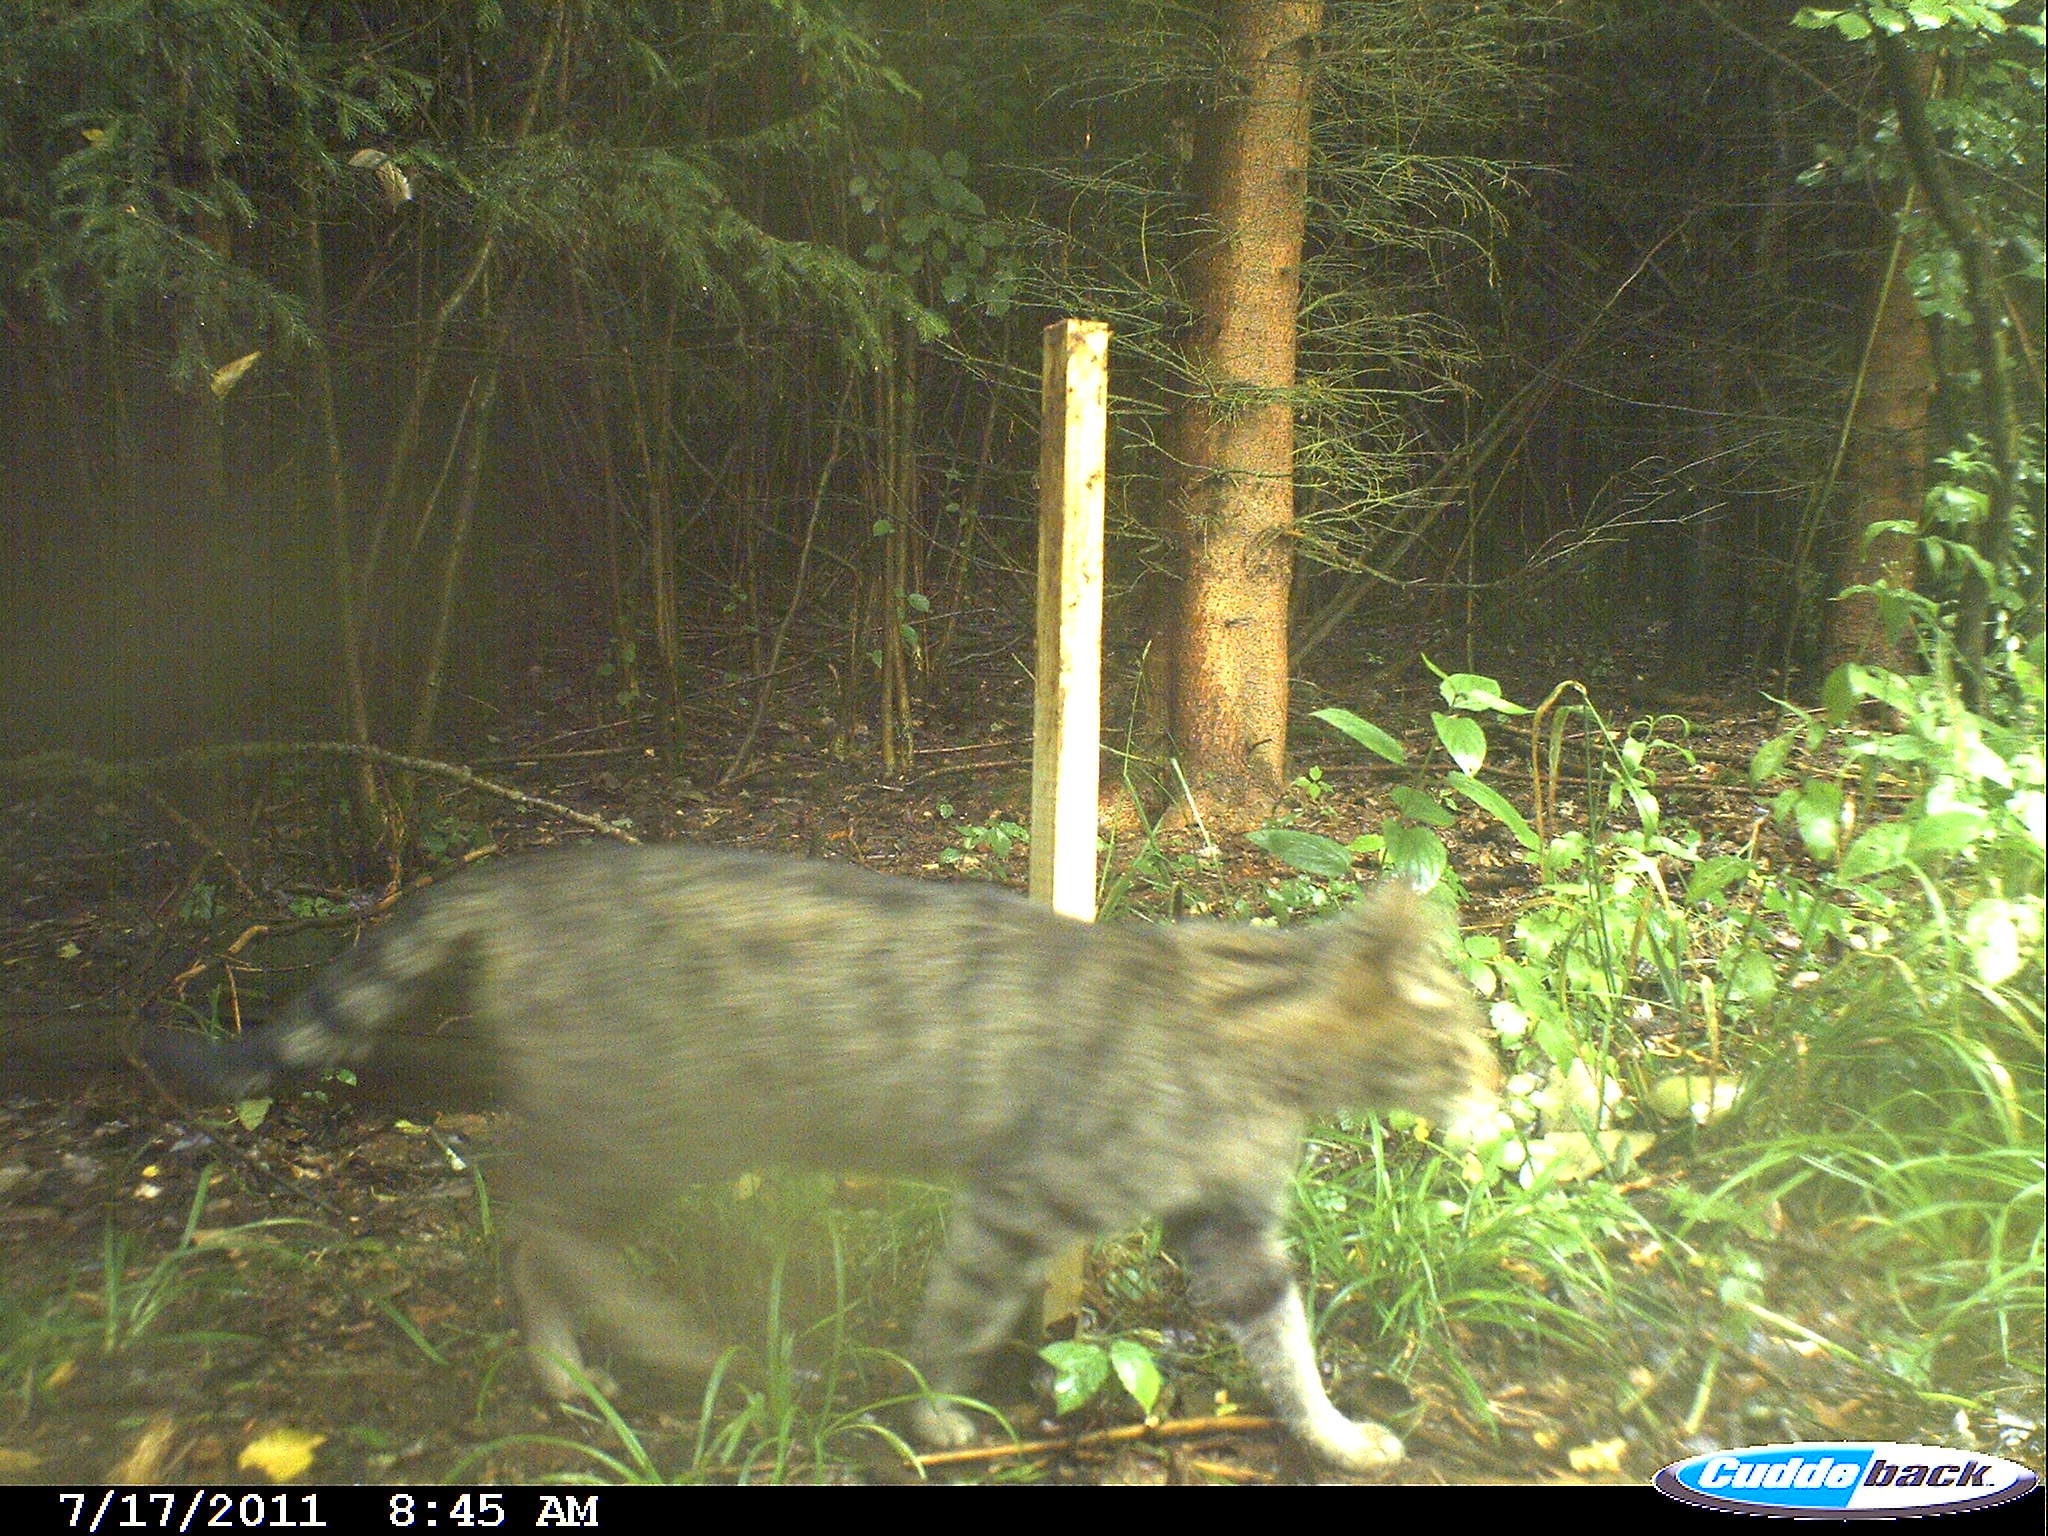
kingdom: Animalia
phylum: Chordata
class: Mammalia
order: Carnivora
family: Felidae
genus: Felis
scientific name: Felis silvestris
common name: Wildcat
